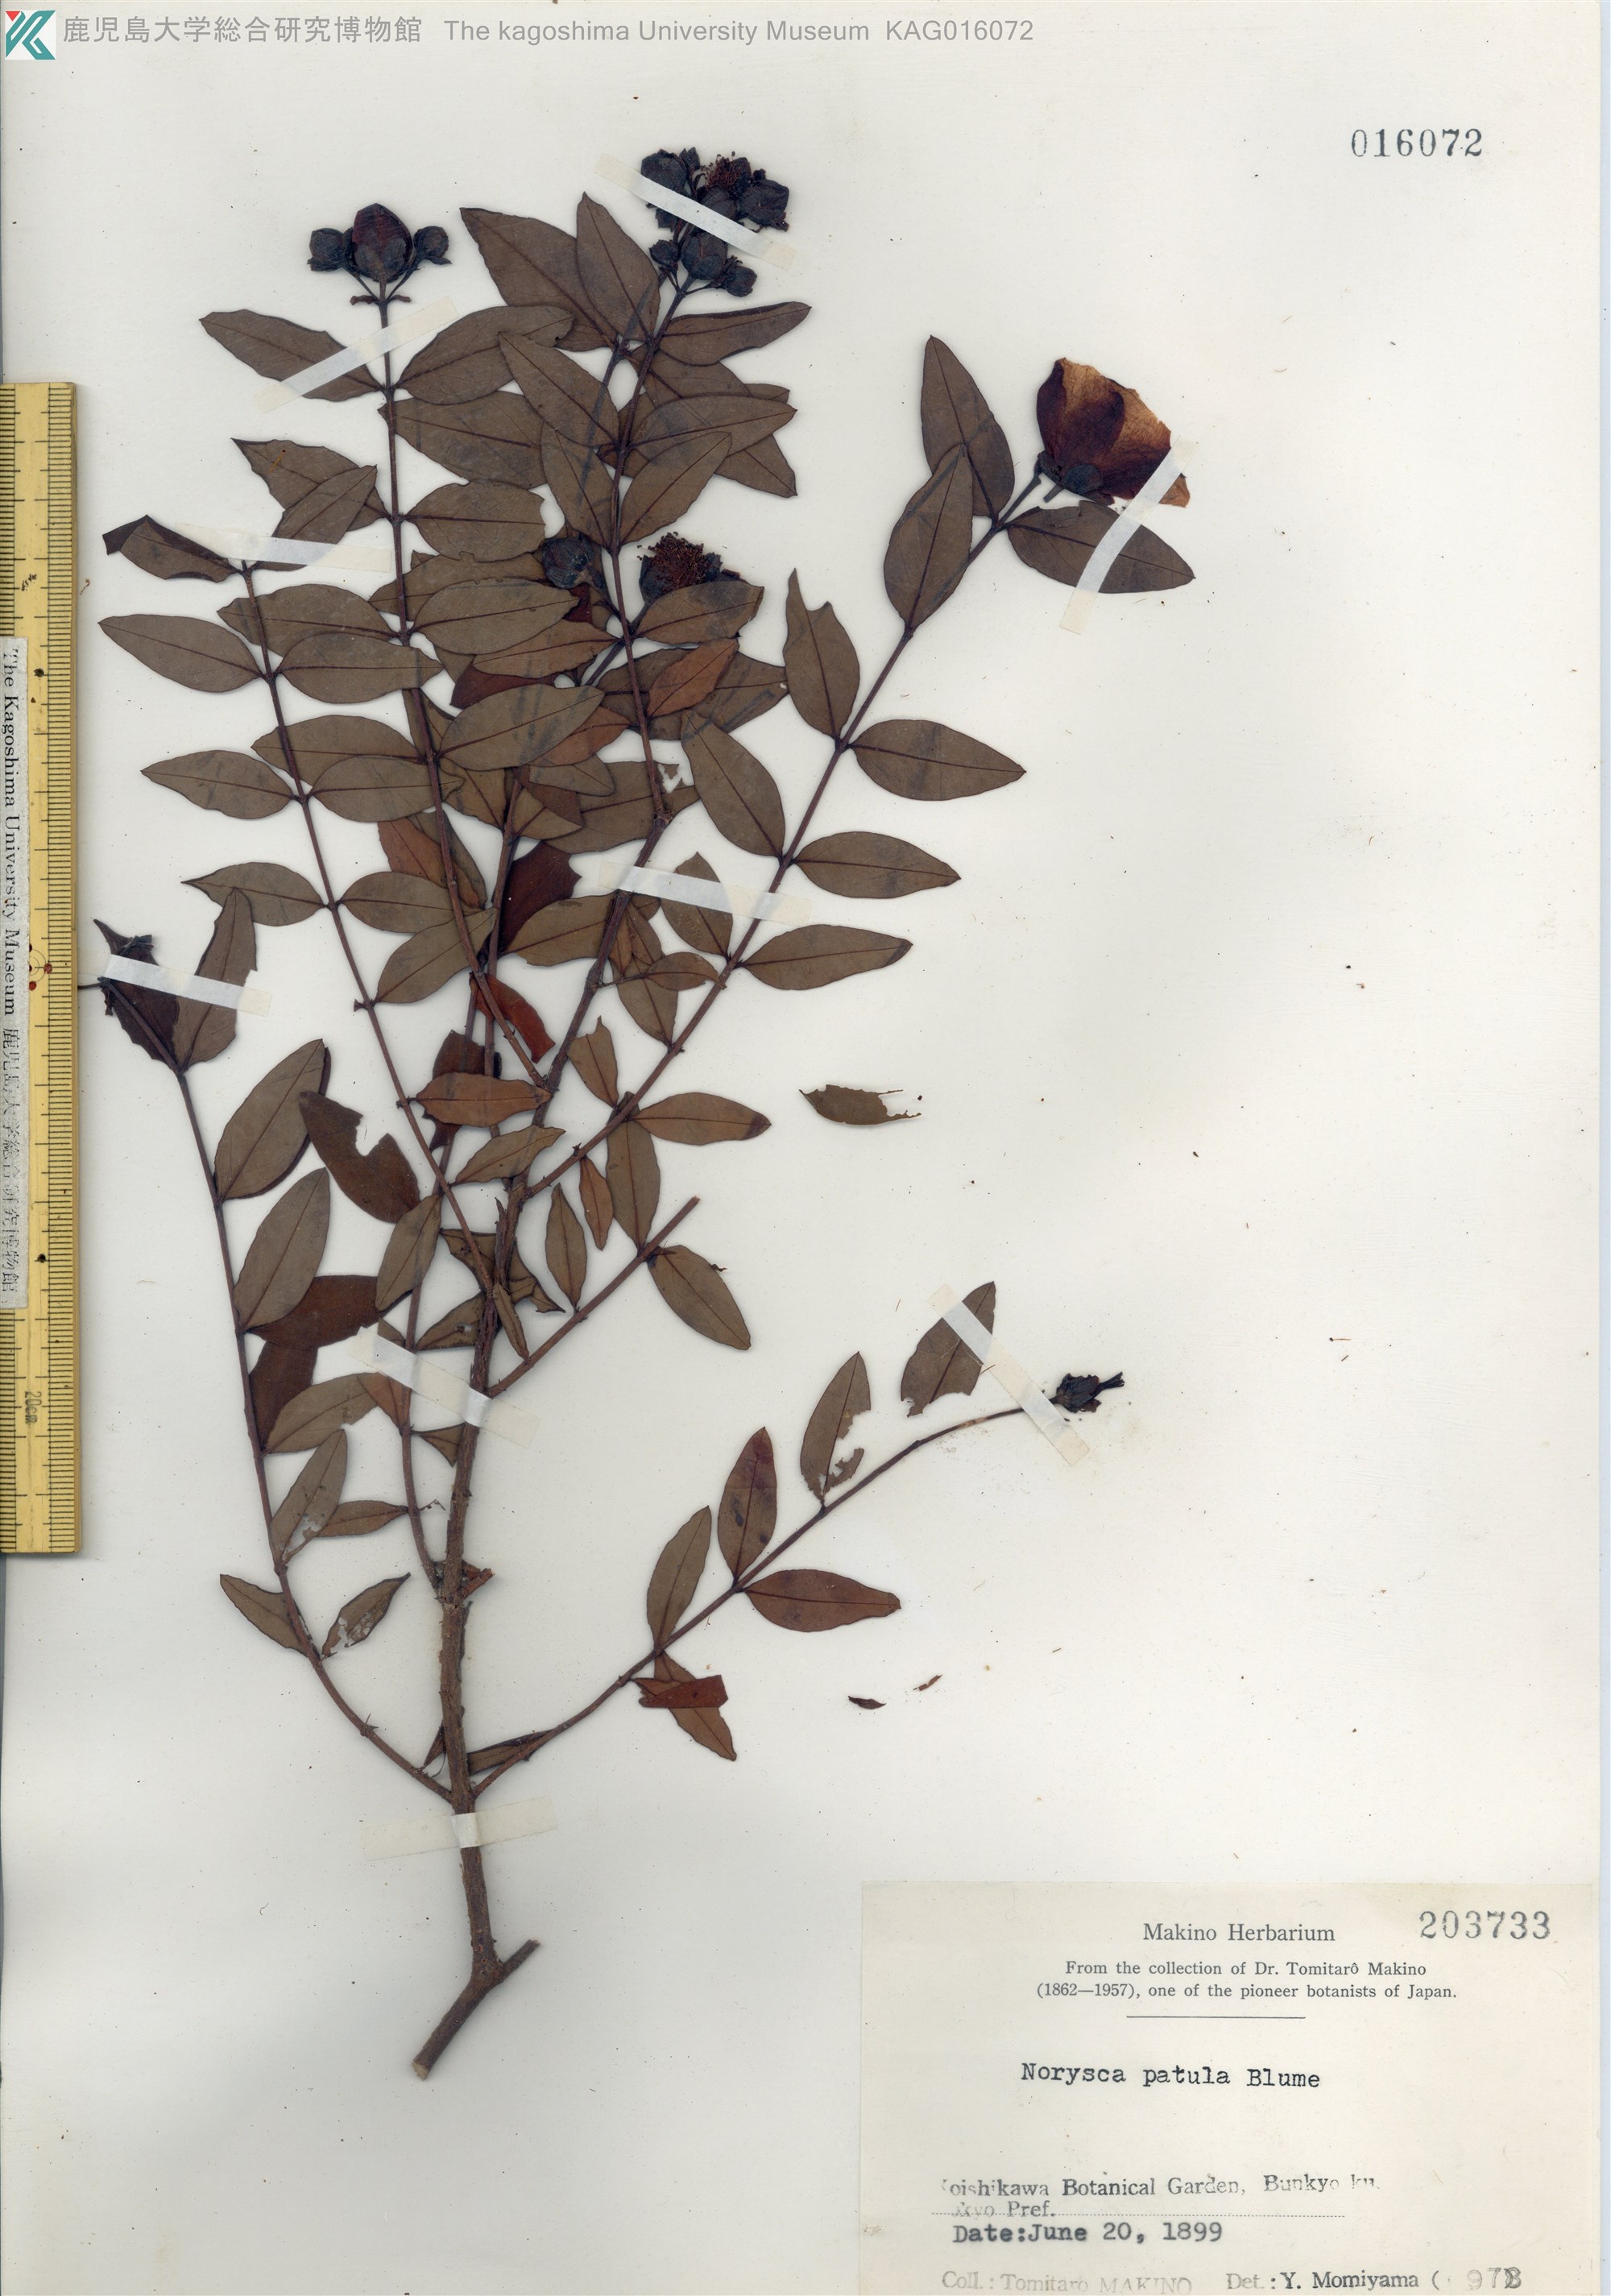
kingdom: Plantae
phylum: Tracheophyta
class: Magnoliopsida
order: Malpighiales
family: Hypericaceae
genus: Hypericum
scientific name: Hypericum patulum
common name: キンシバイ
